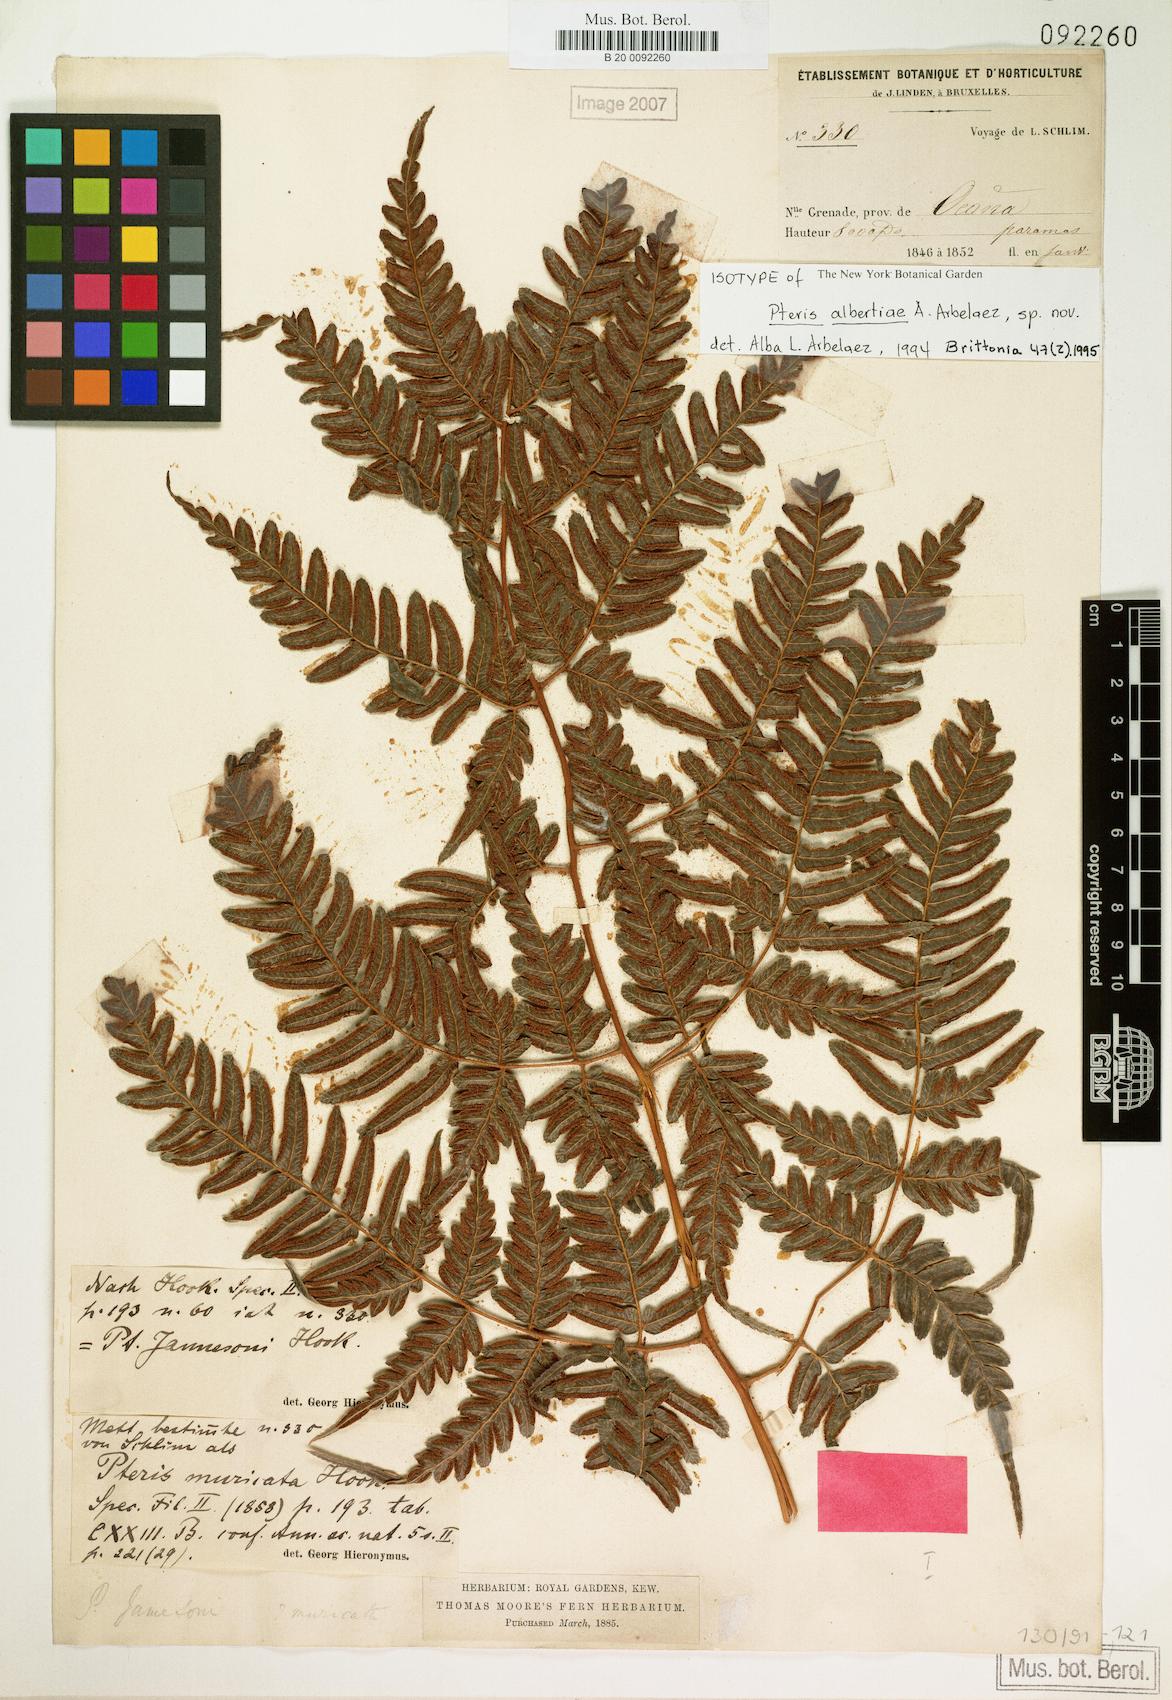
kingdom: Plantae
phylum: Tracheophyta
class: Polypodiopsida
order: Polypodiales
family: Pteridaceae
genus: Pteris
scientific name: Pteris albertiae
